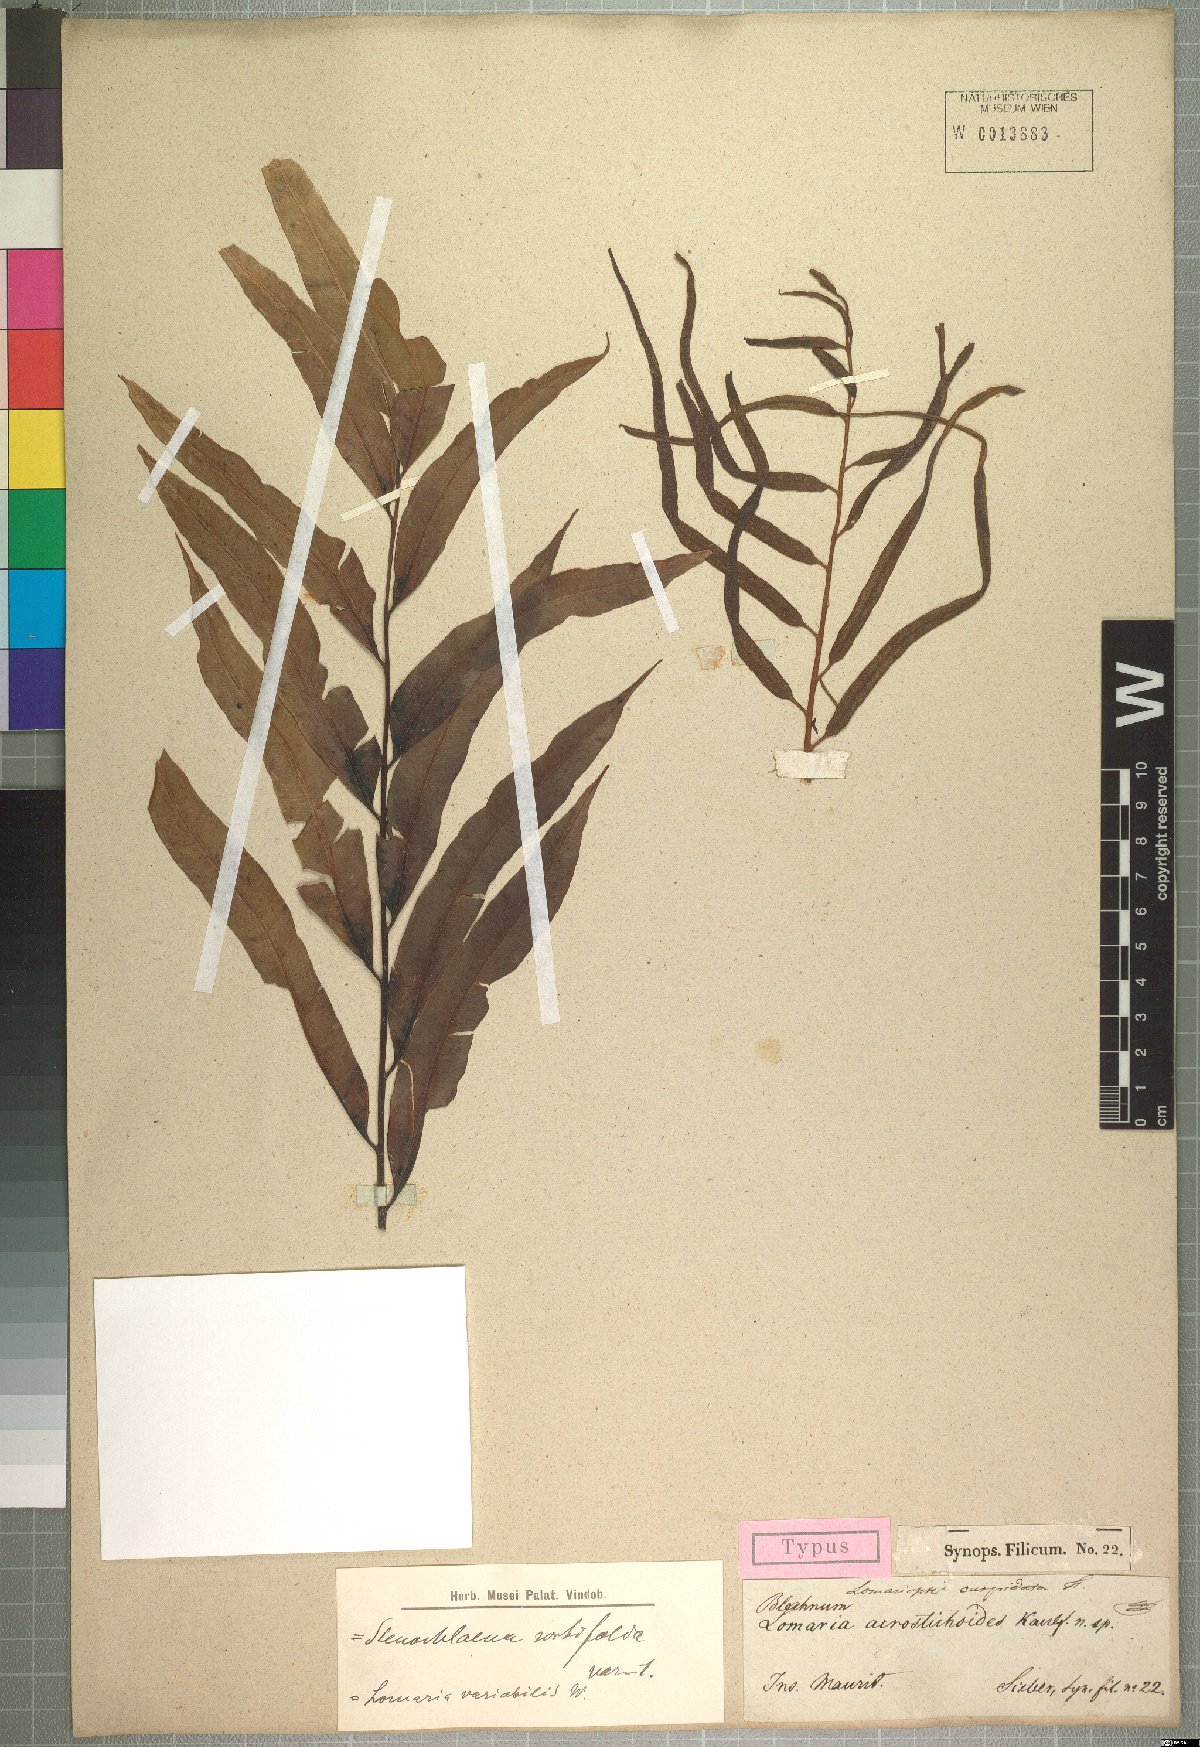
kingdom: Plantae
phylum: Tracheophyta
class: Polypodiopsida
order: Polypodiales
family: Lomariopsidaceae
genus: Lomariopsis
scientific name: Lomariopsis variabilis
